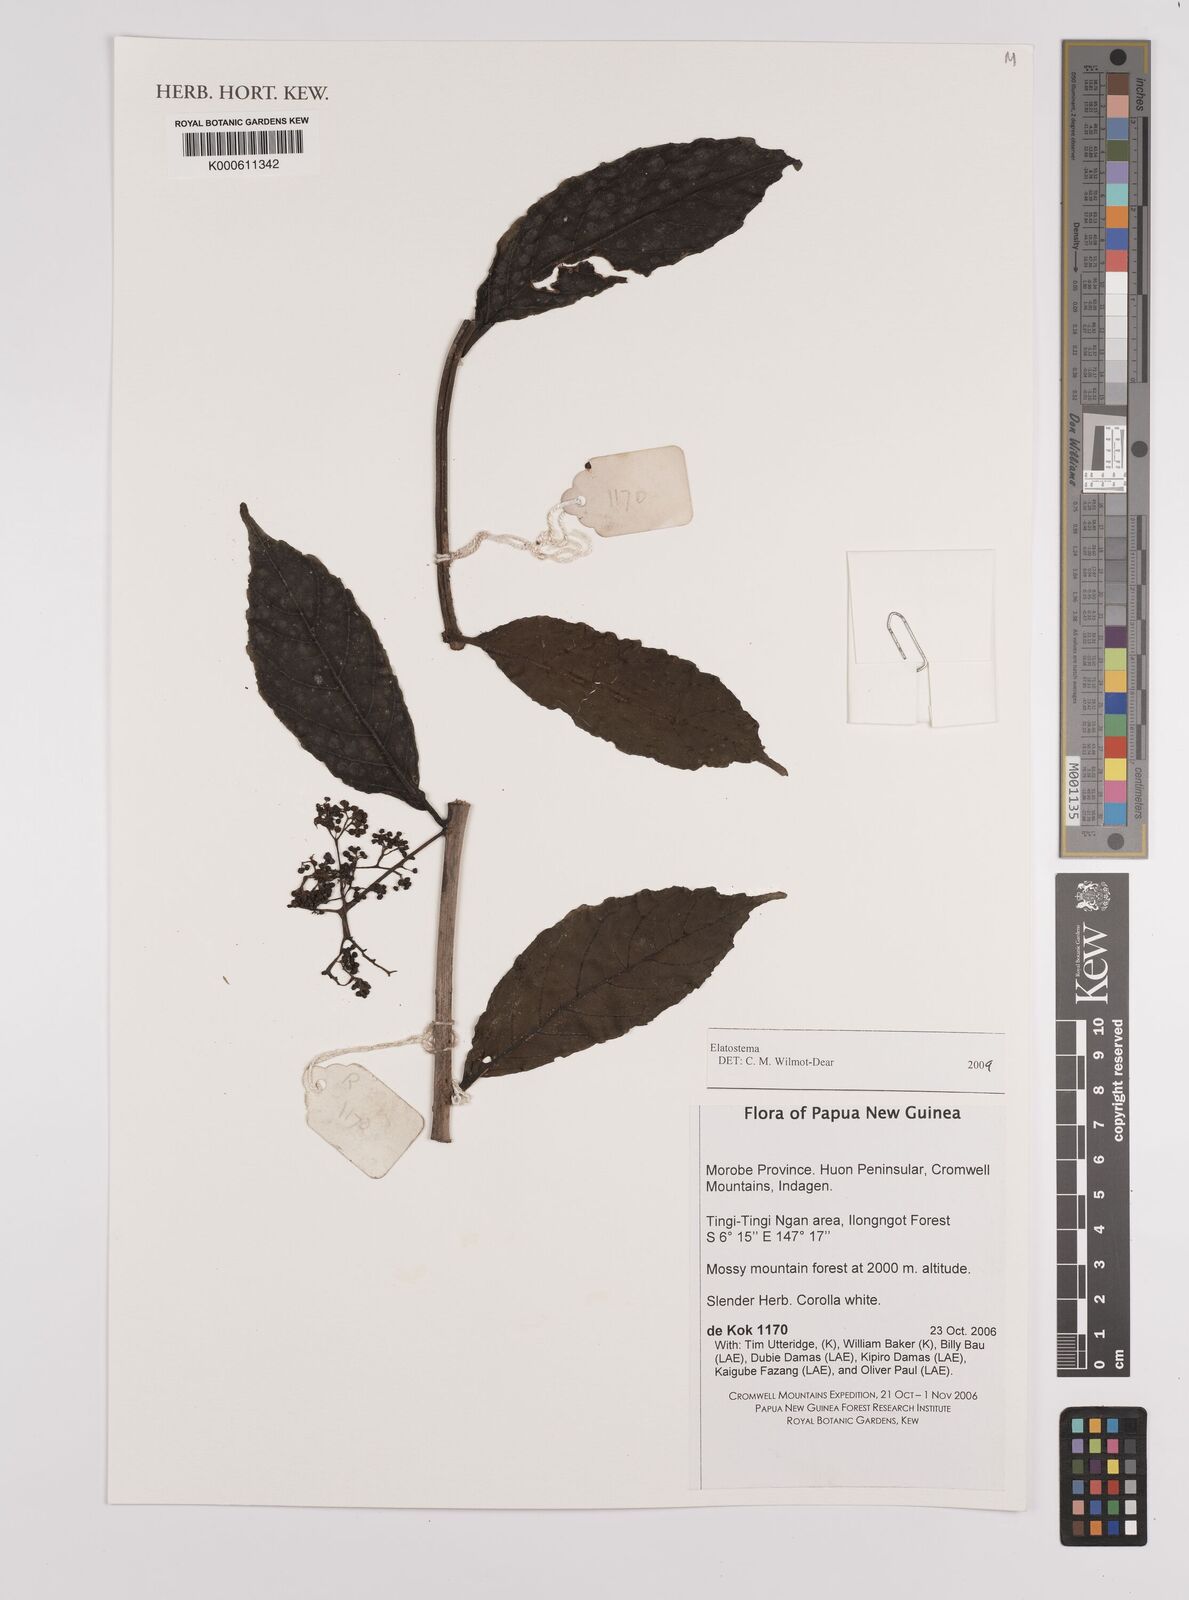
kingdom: Plantae
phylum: Tracheophyta
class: Magnoliopsida
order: Rosales
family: Urticaceae
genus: Elatostema
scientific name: Elatostema
